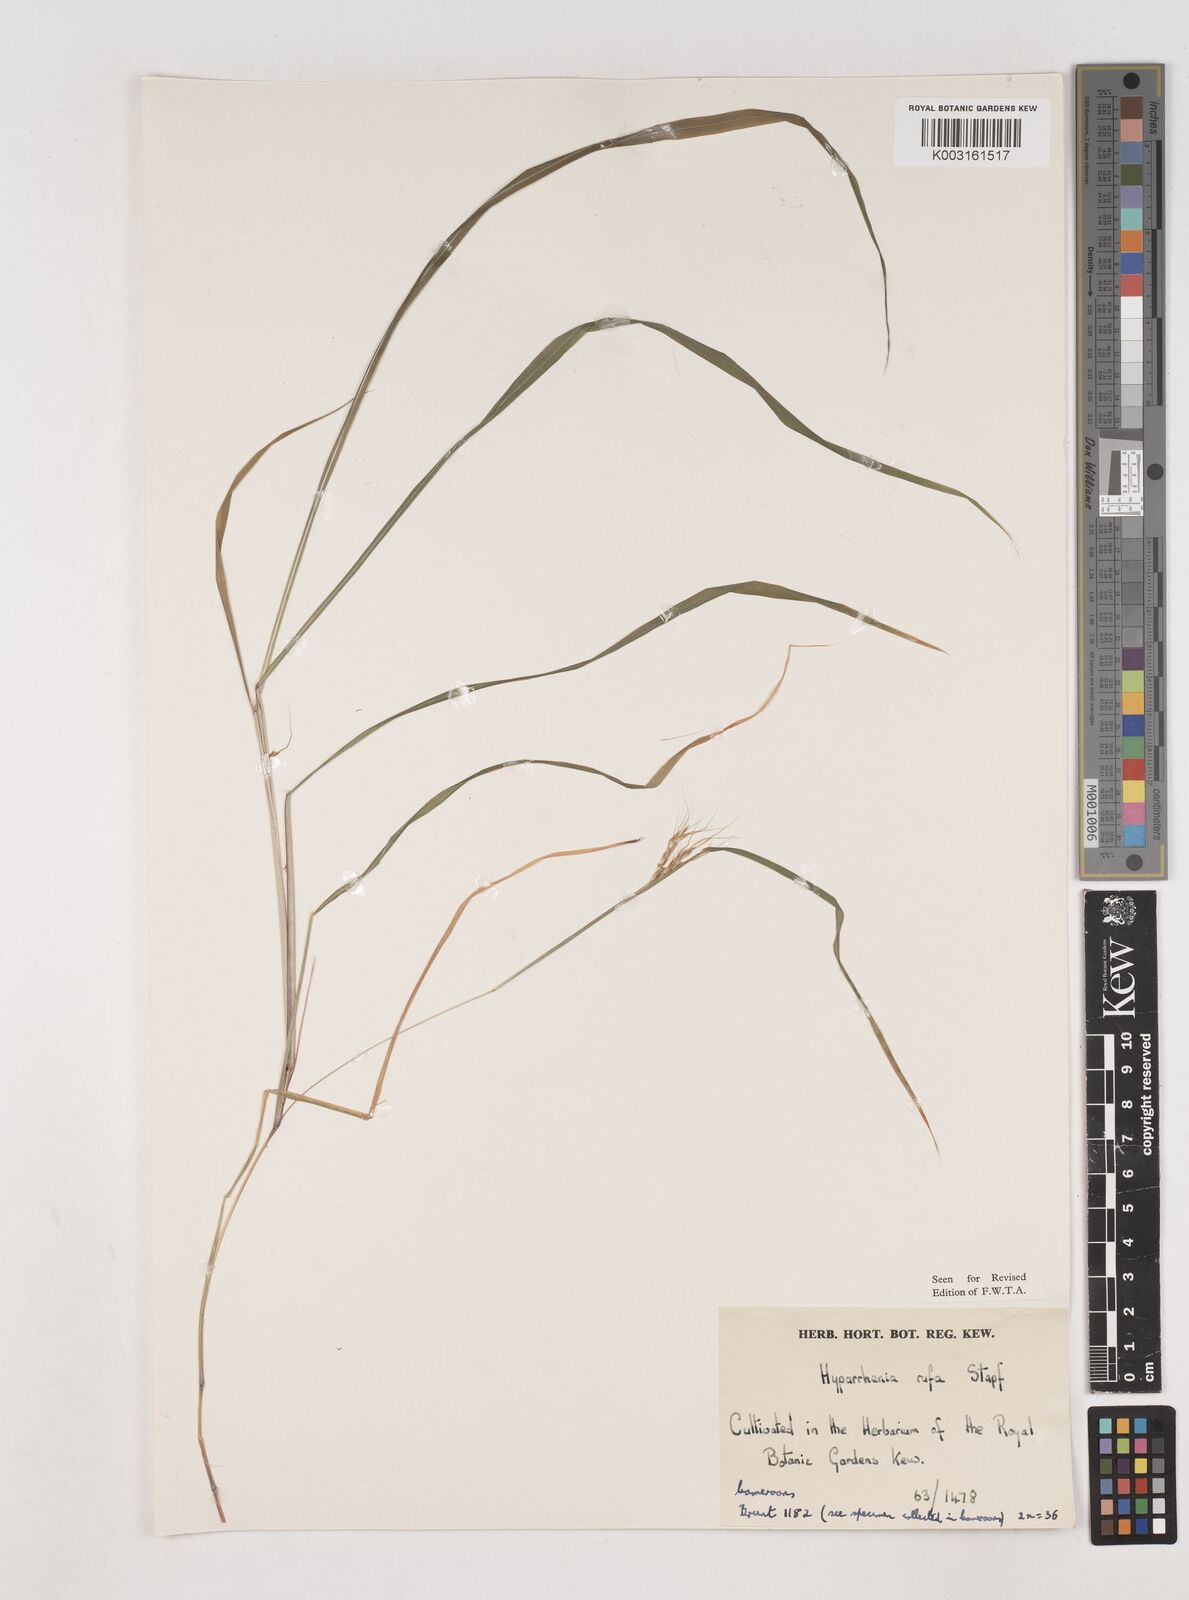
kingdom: Plantae
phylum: Tracheophyta
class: Liliopsida
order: Poales
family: Poaceae
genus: Hyparrhenia
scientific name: Hyparrhenia rufa
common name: Jaraguagrass
